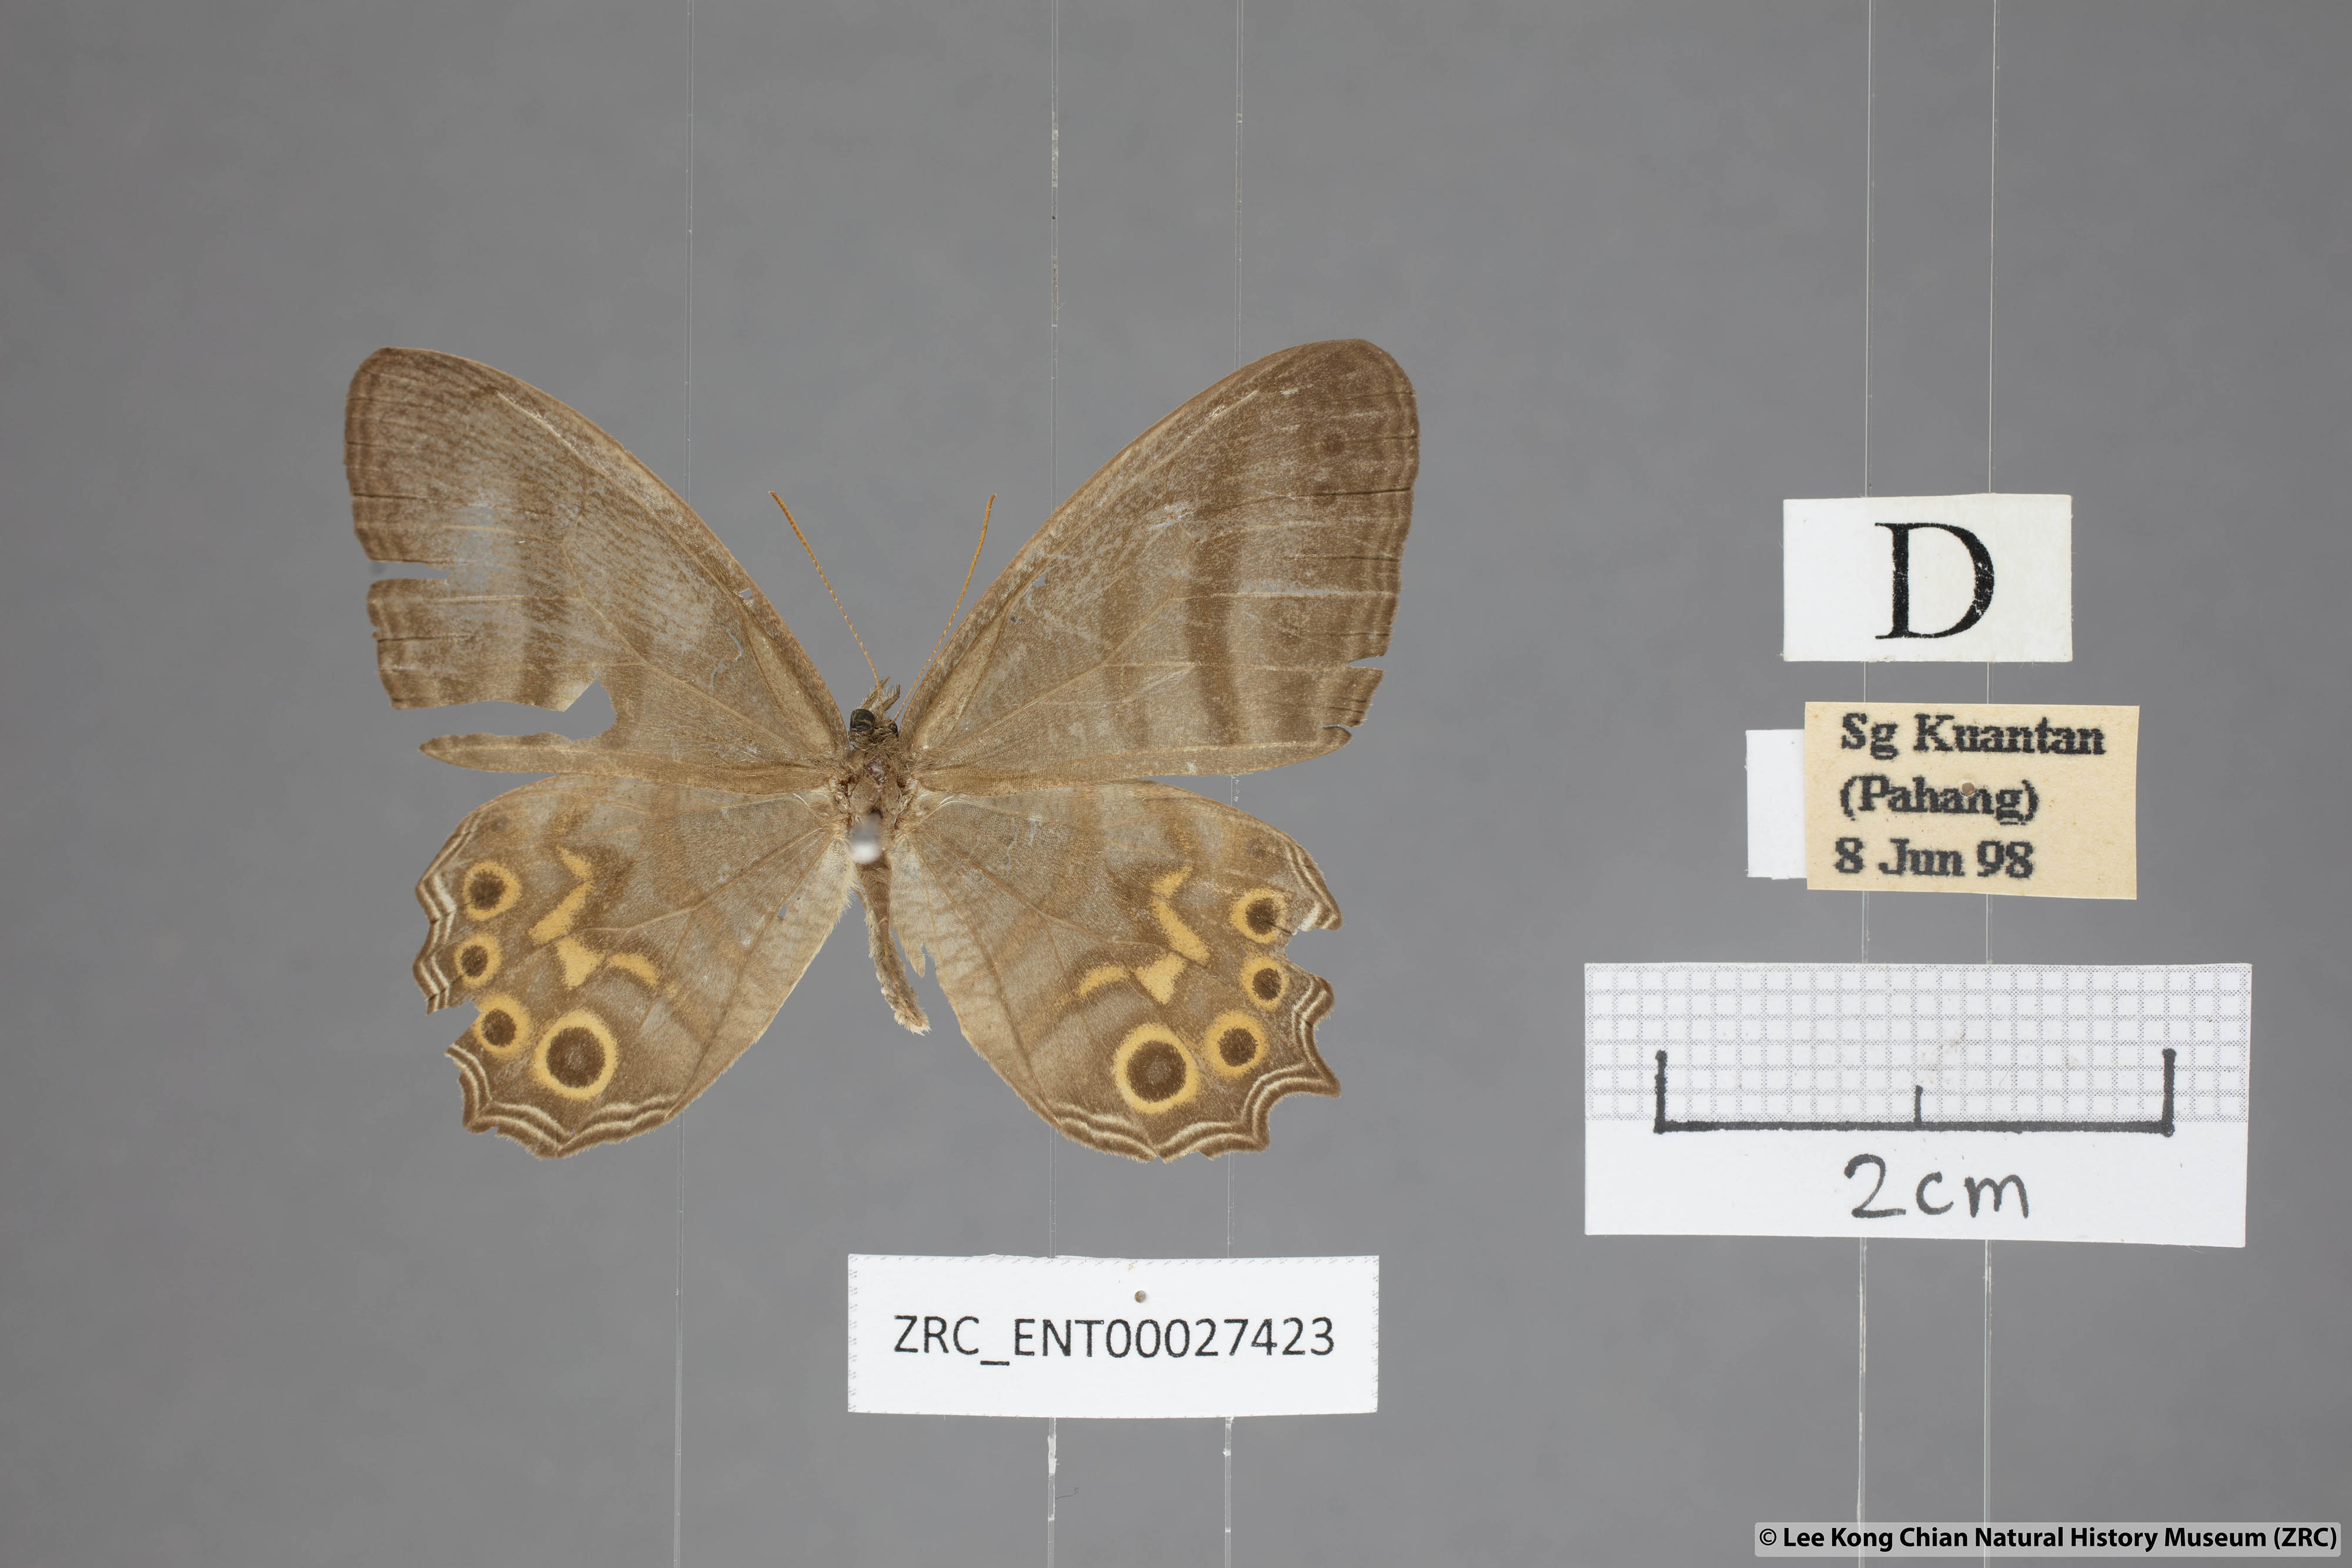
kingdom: Animalia
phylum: Arthropoda
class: Insecta
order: Lepidoptera
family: Nymphalidae
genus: Erites
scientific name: Erites elegans
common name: Elegent cyclops
